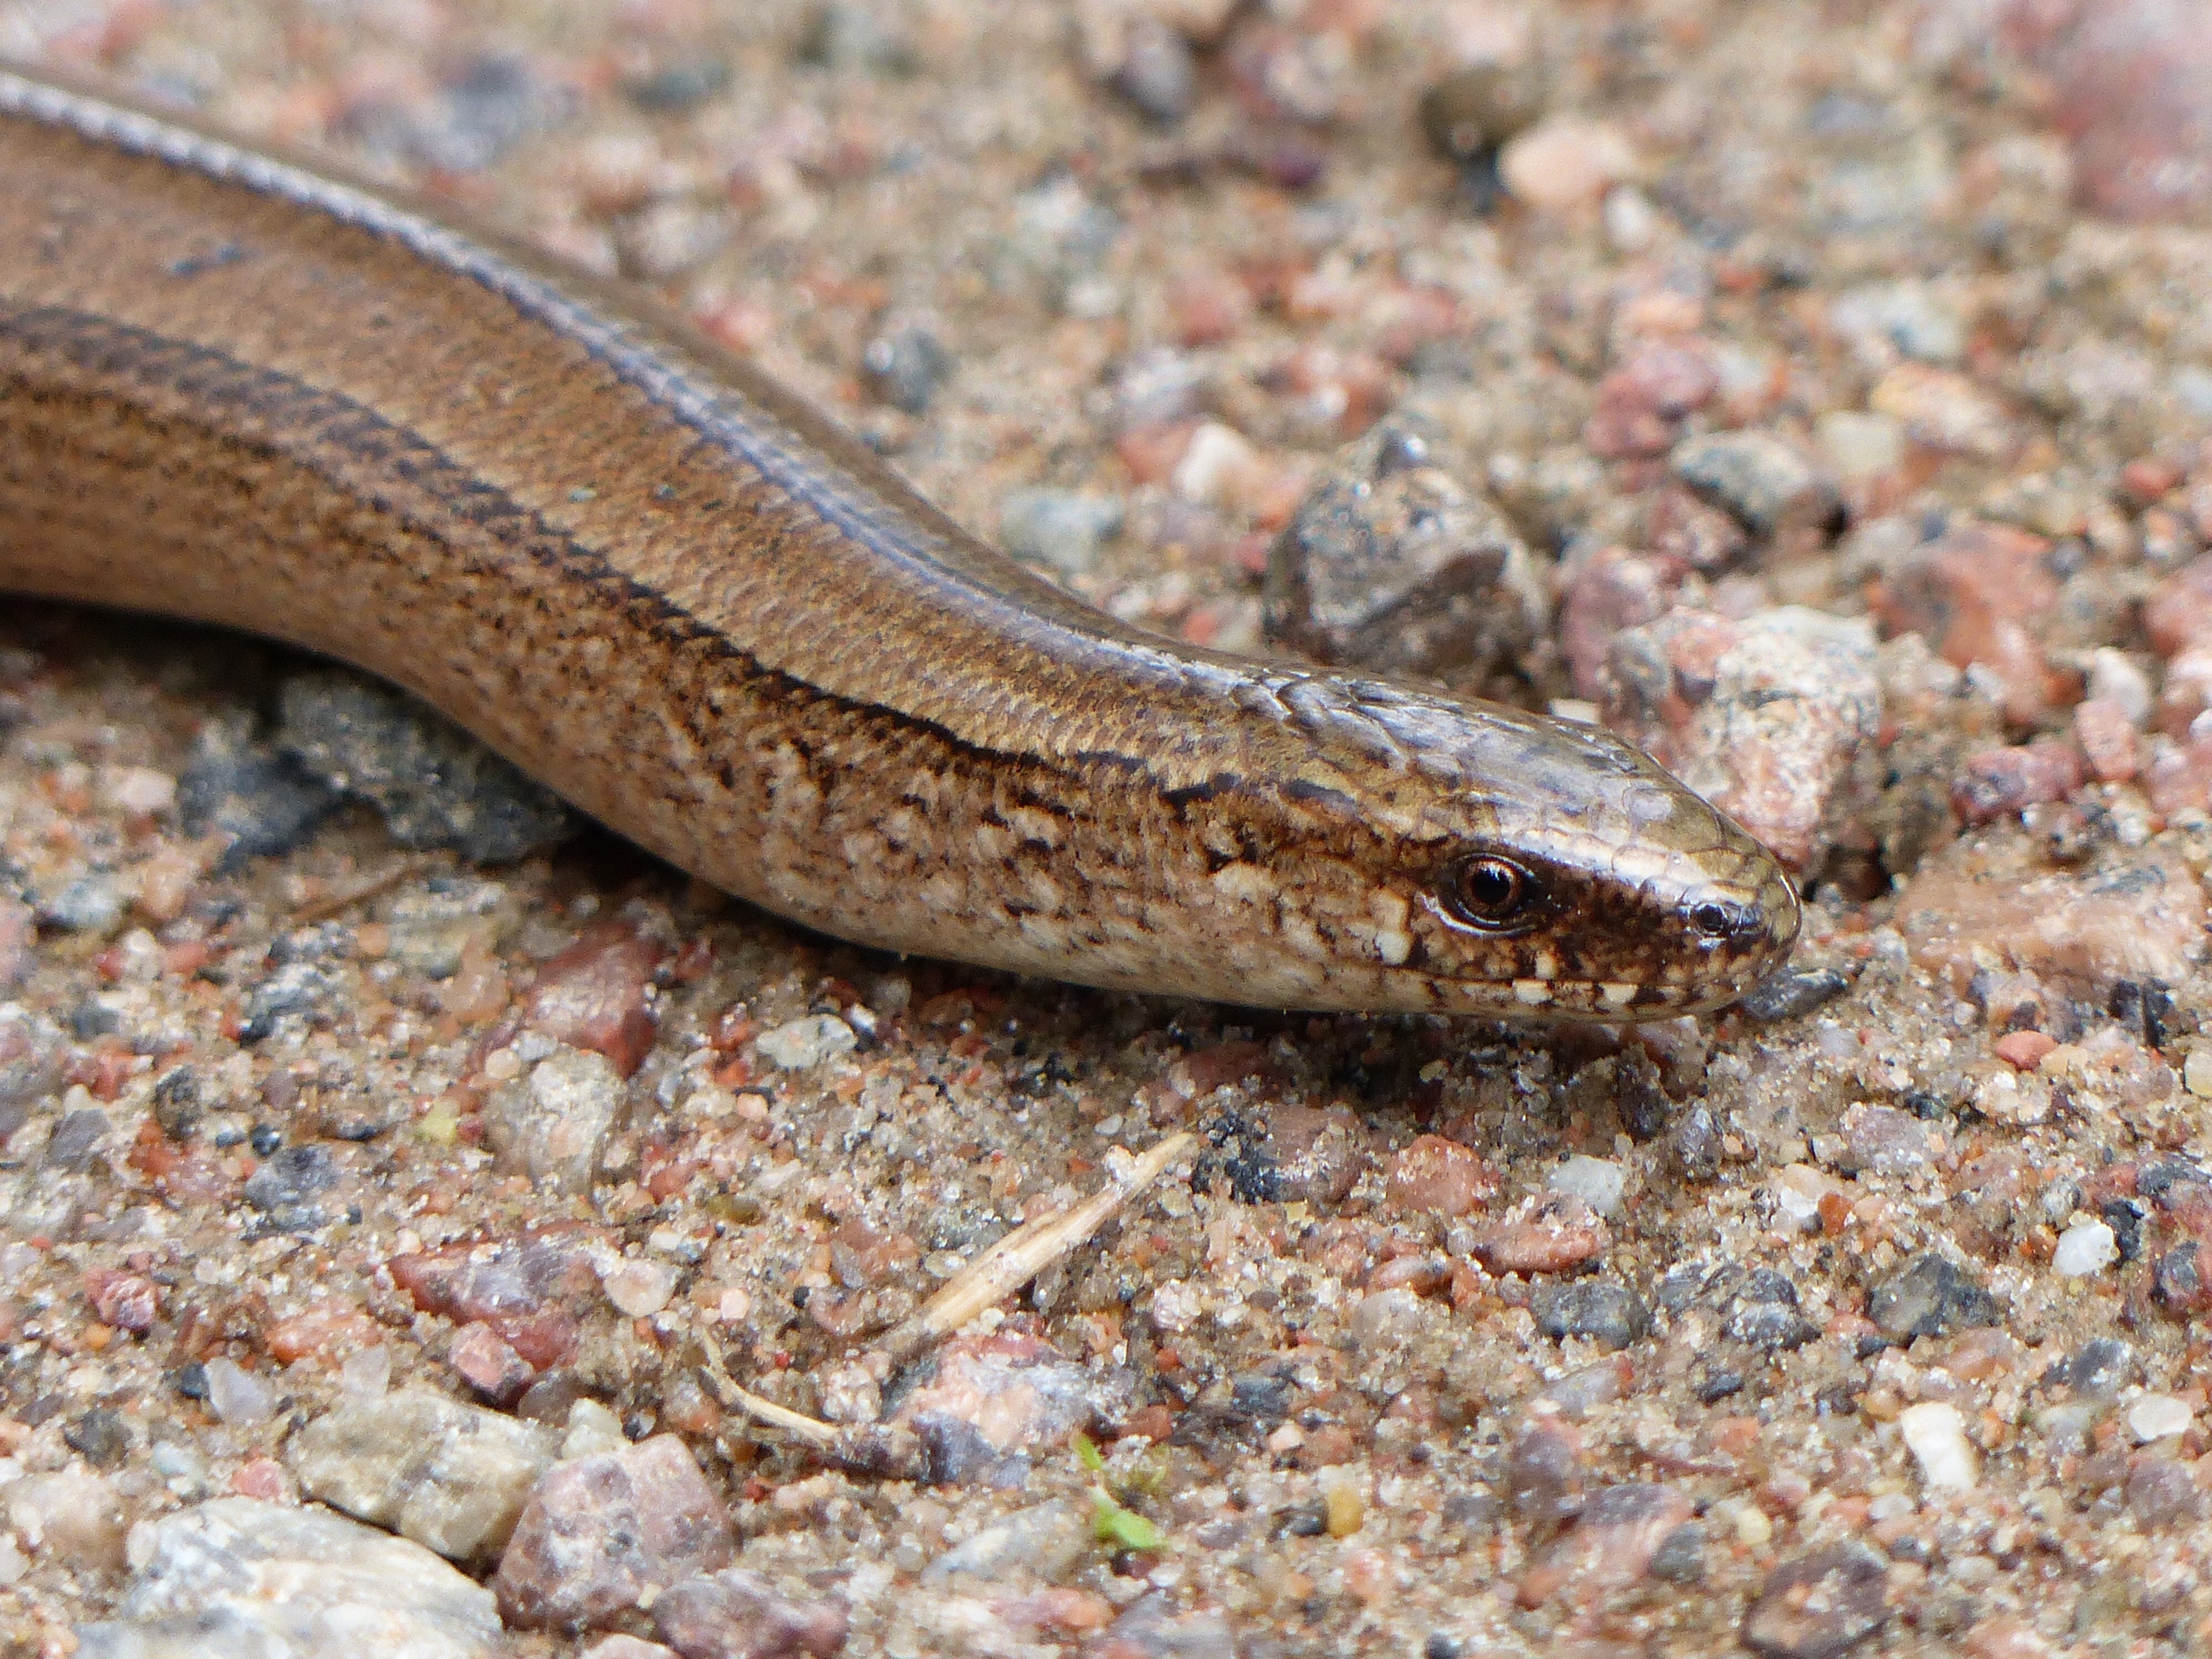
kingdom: Animalia
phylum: Chordata
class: Squamata
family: Anguidae
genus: Anguis
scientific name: Anguis colchica
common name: Slow worm
